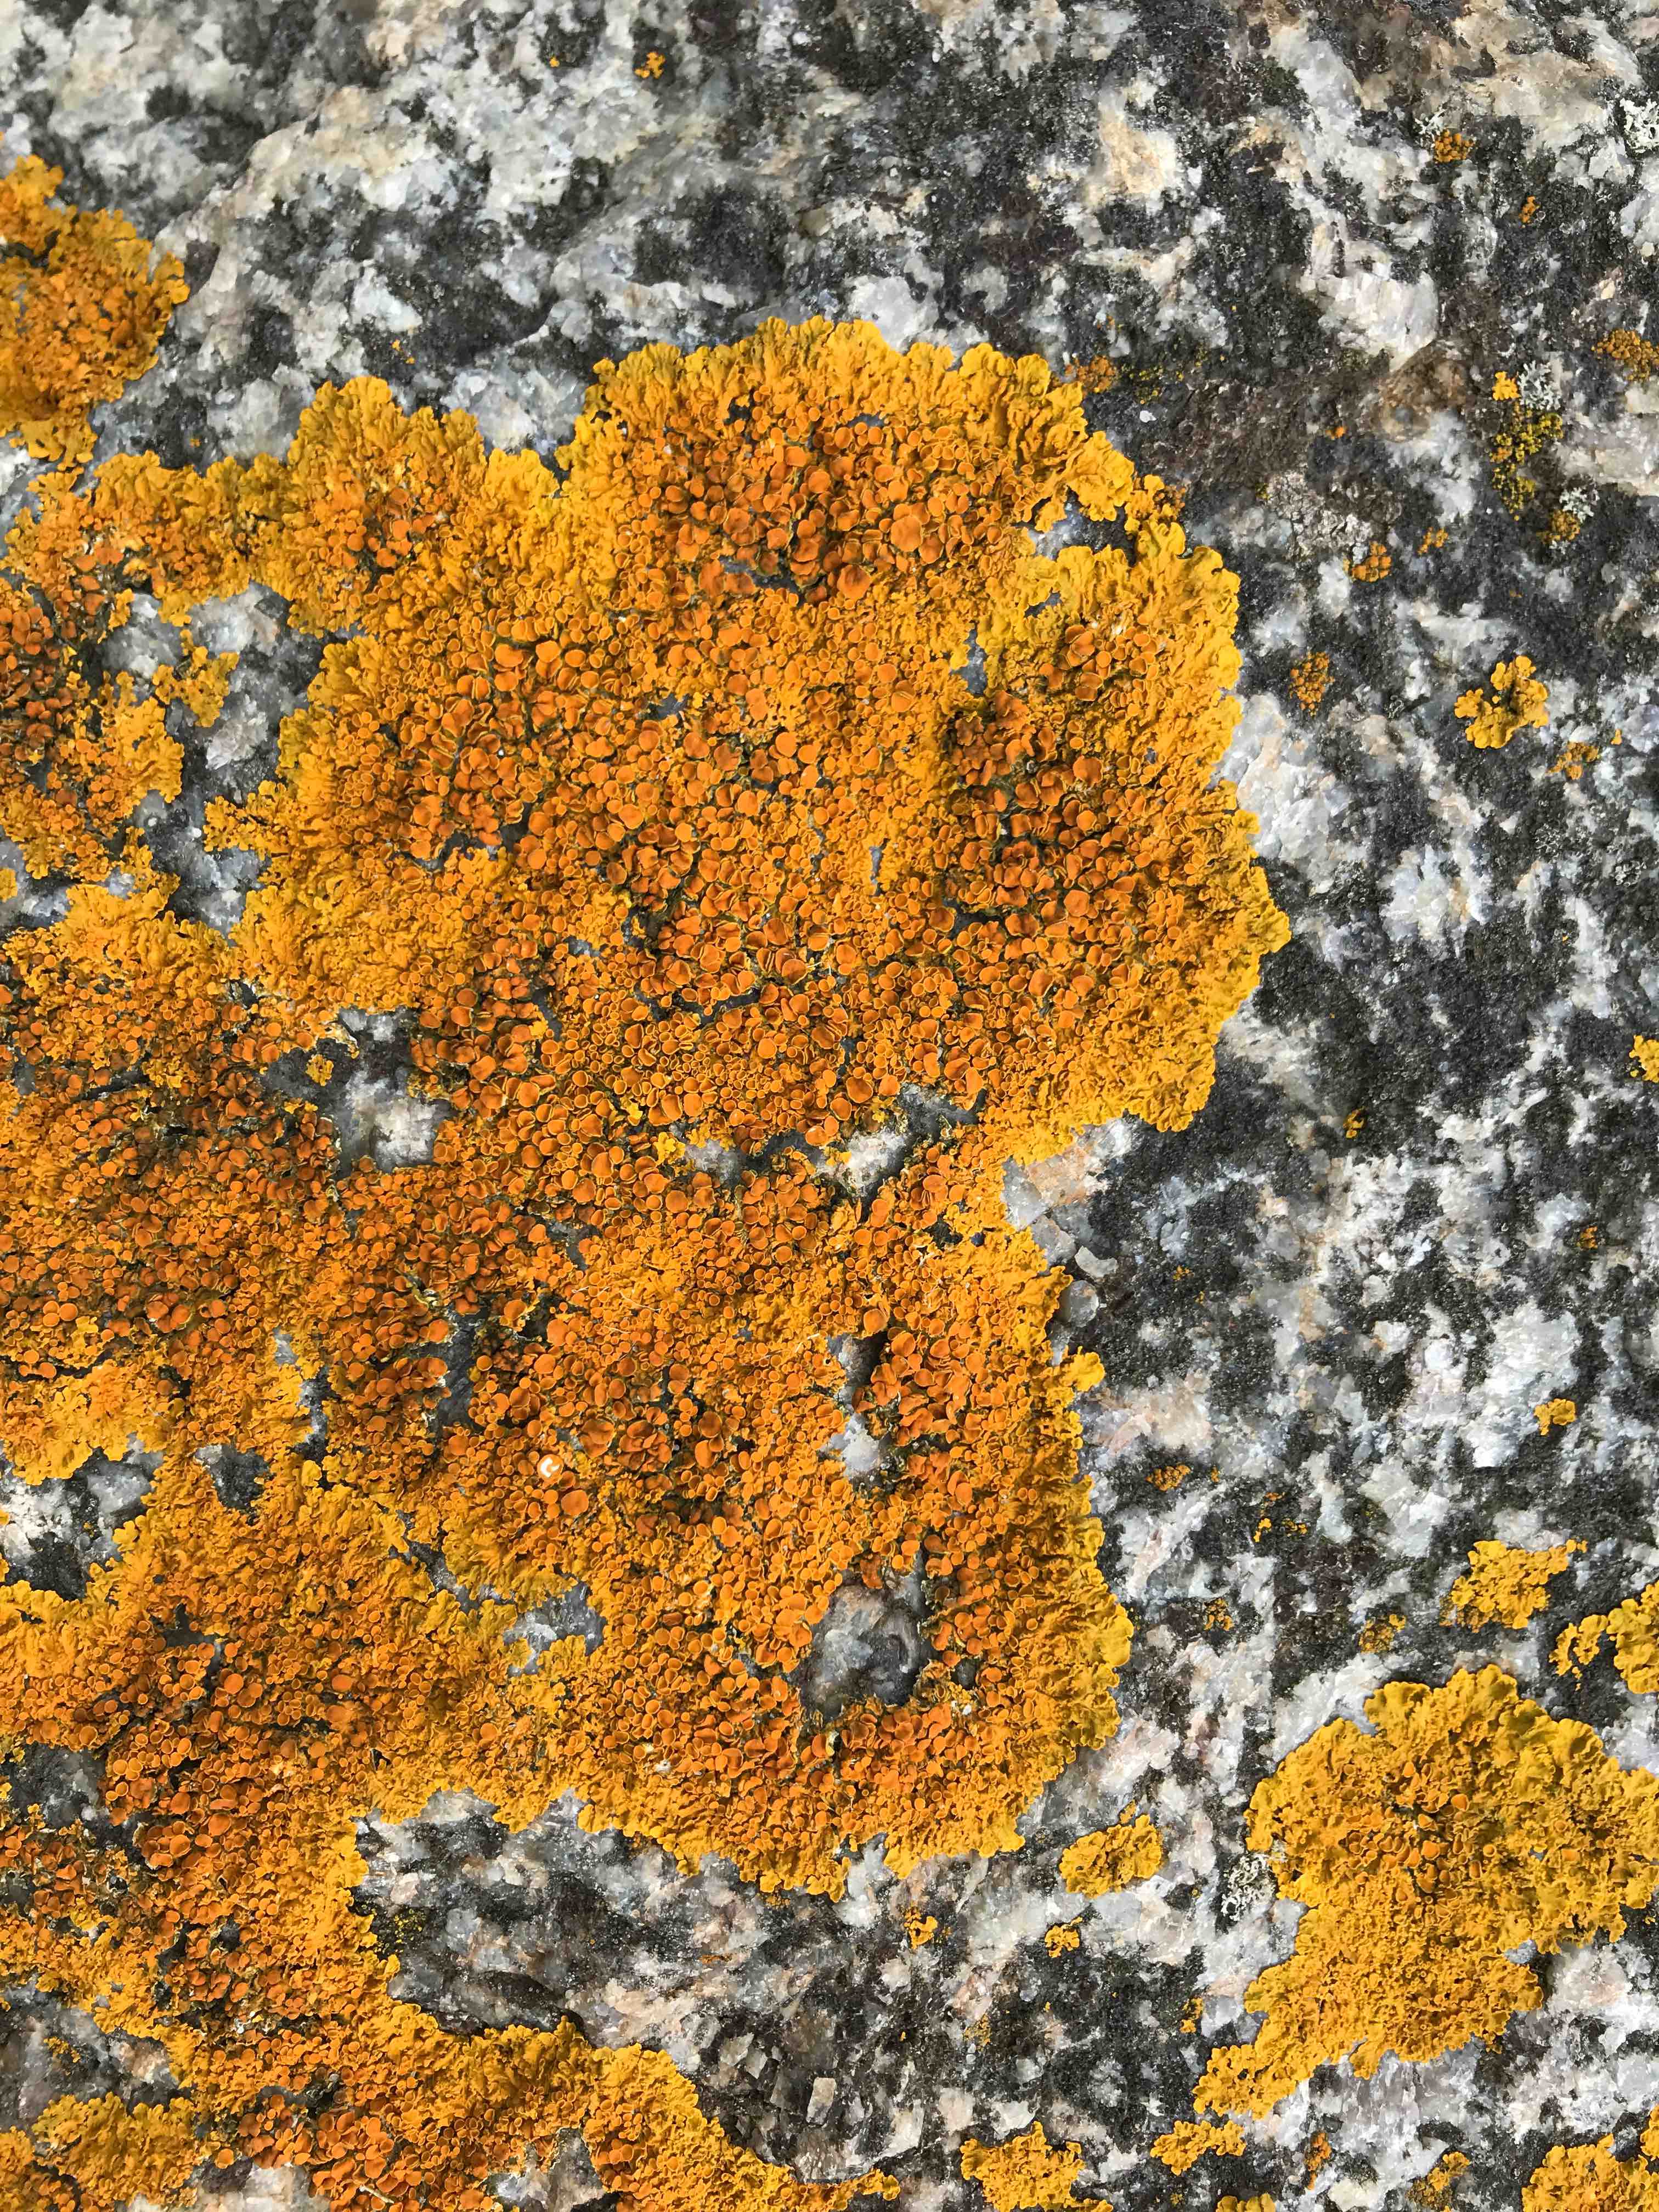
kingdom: Fungi
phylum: Ascomycota
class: Lecanoromycetes
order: Teloschistales
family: Teloschistaceae
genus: Xanthoria
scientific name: Xanthoria parietina
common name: almindelig væggelav
